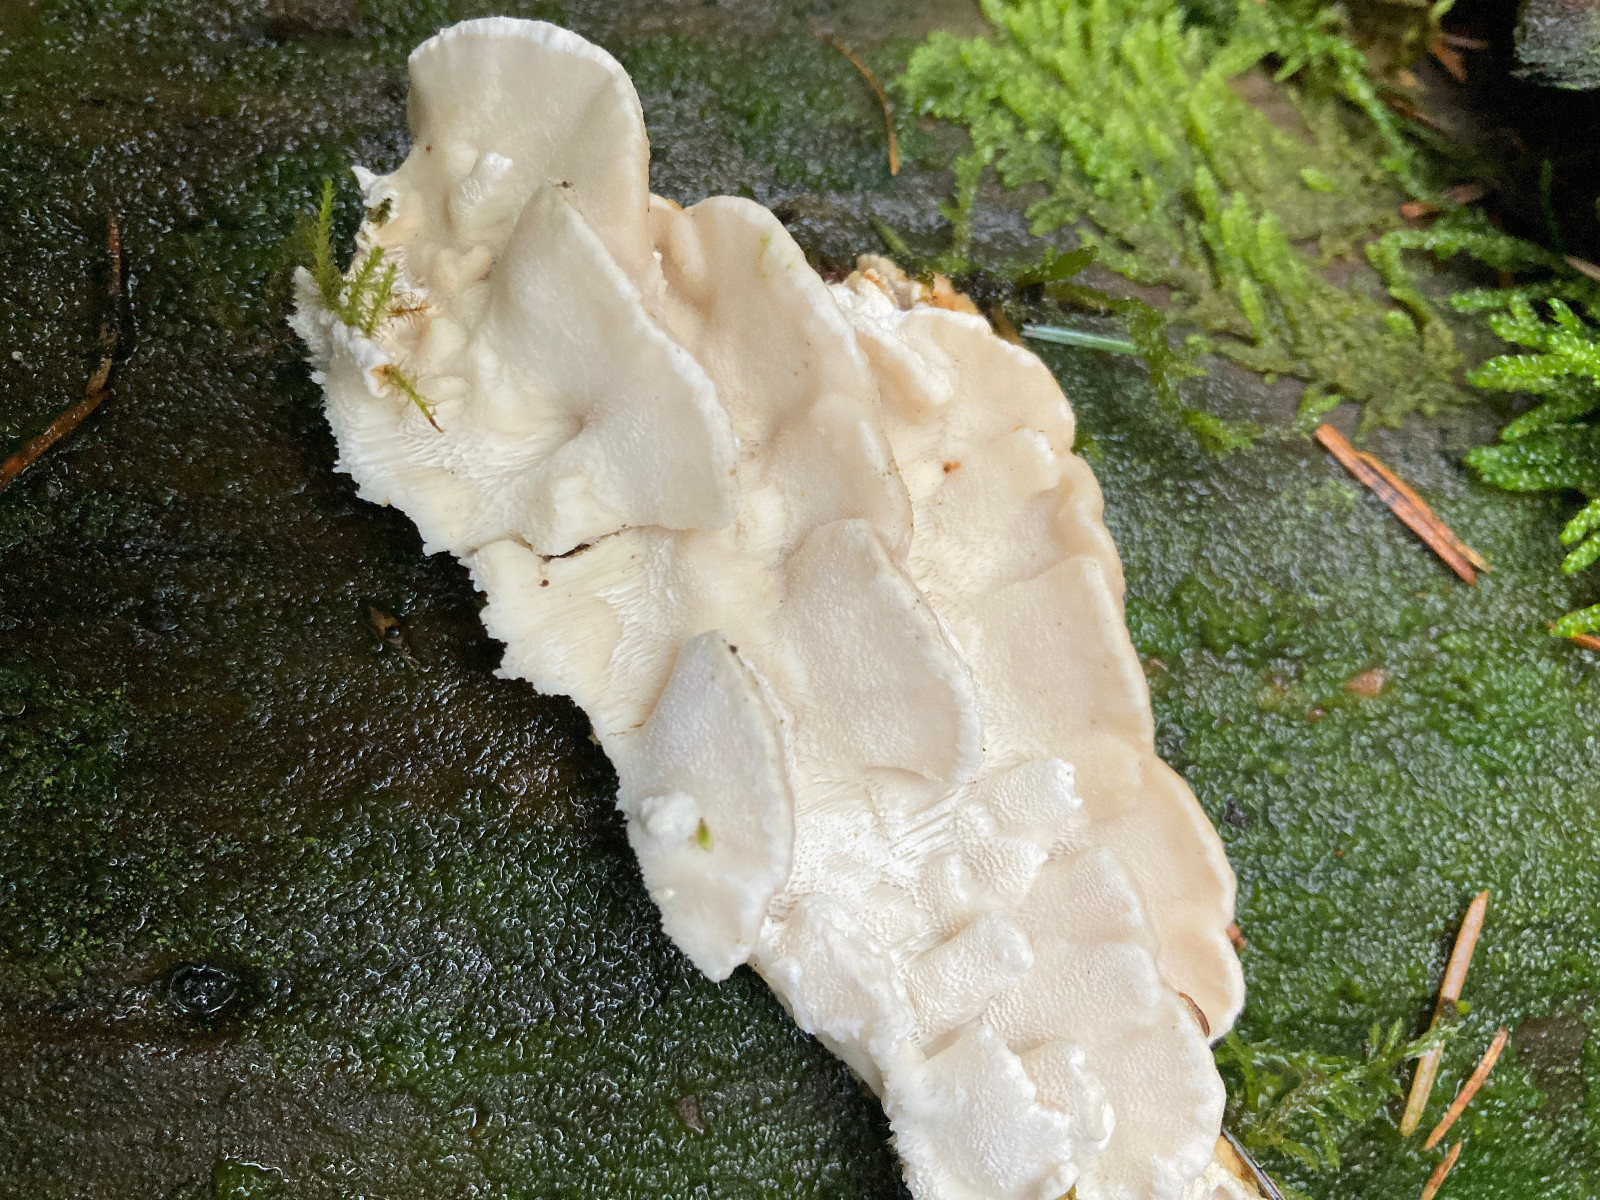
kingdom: Fungi
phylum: Basidiomycota
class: Agaricomycetes
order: Polyporales
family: Fomitopsidaceae
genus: Neoantrodia
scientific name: Neoantrodia serialis
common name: række-sejporesvamp
